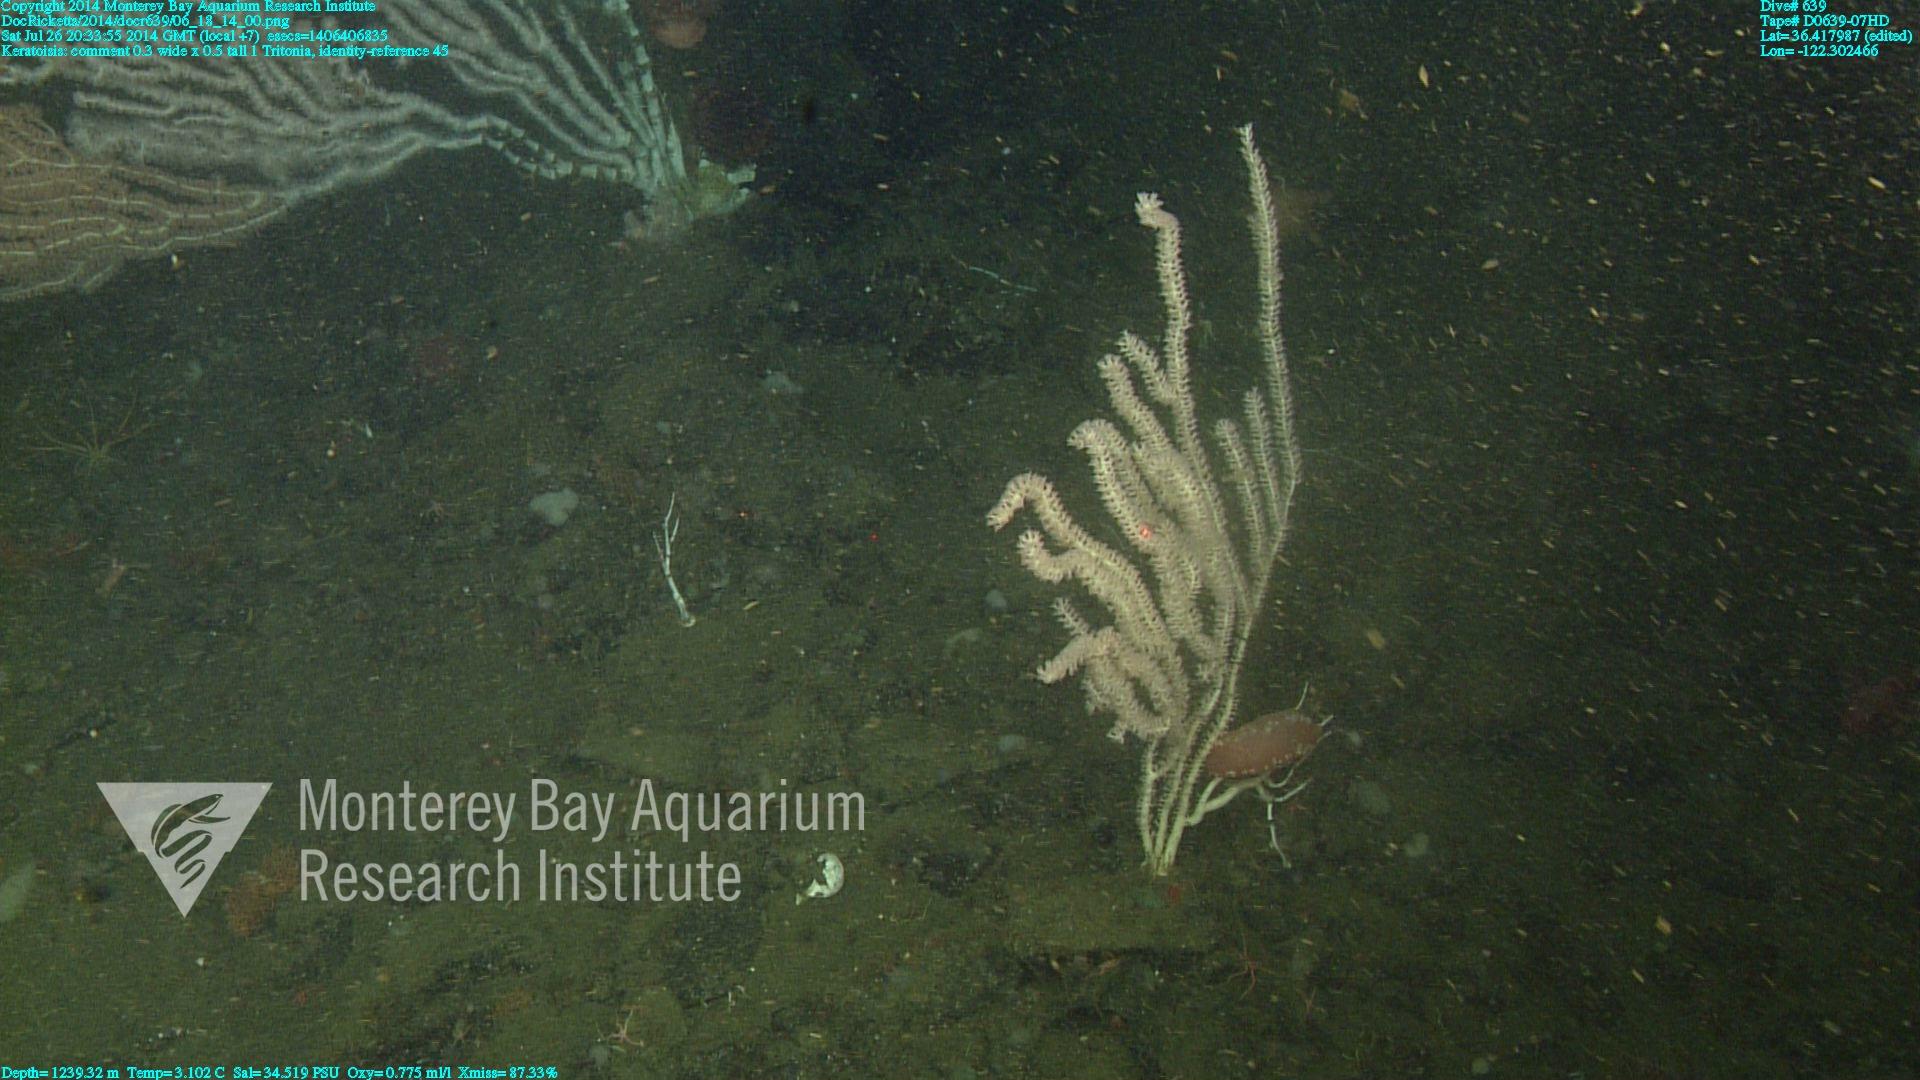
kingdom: Animalia
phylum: Cnidaria
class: Anthozoa
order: Scleralcyonacea
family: Keratoisididae
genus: Keratoisis
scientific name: Keratoisis
